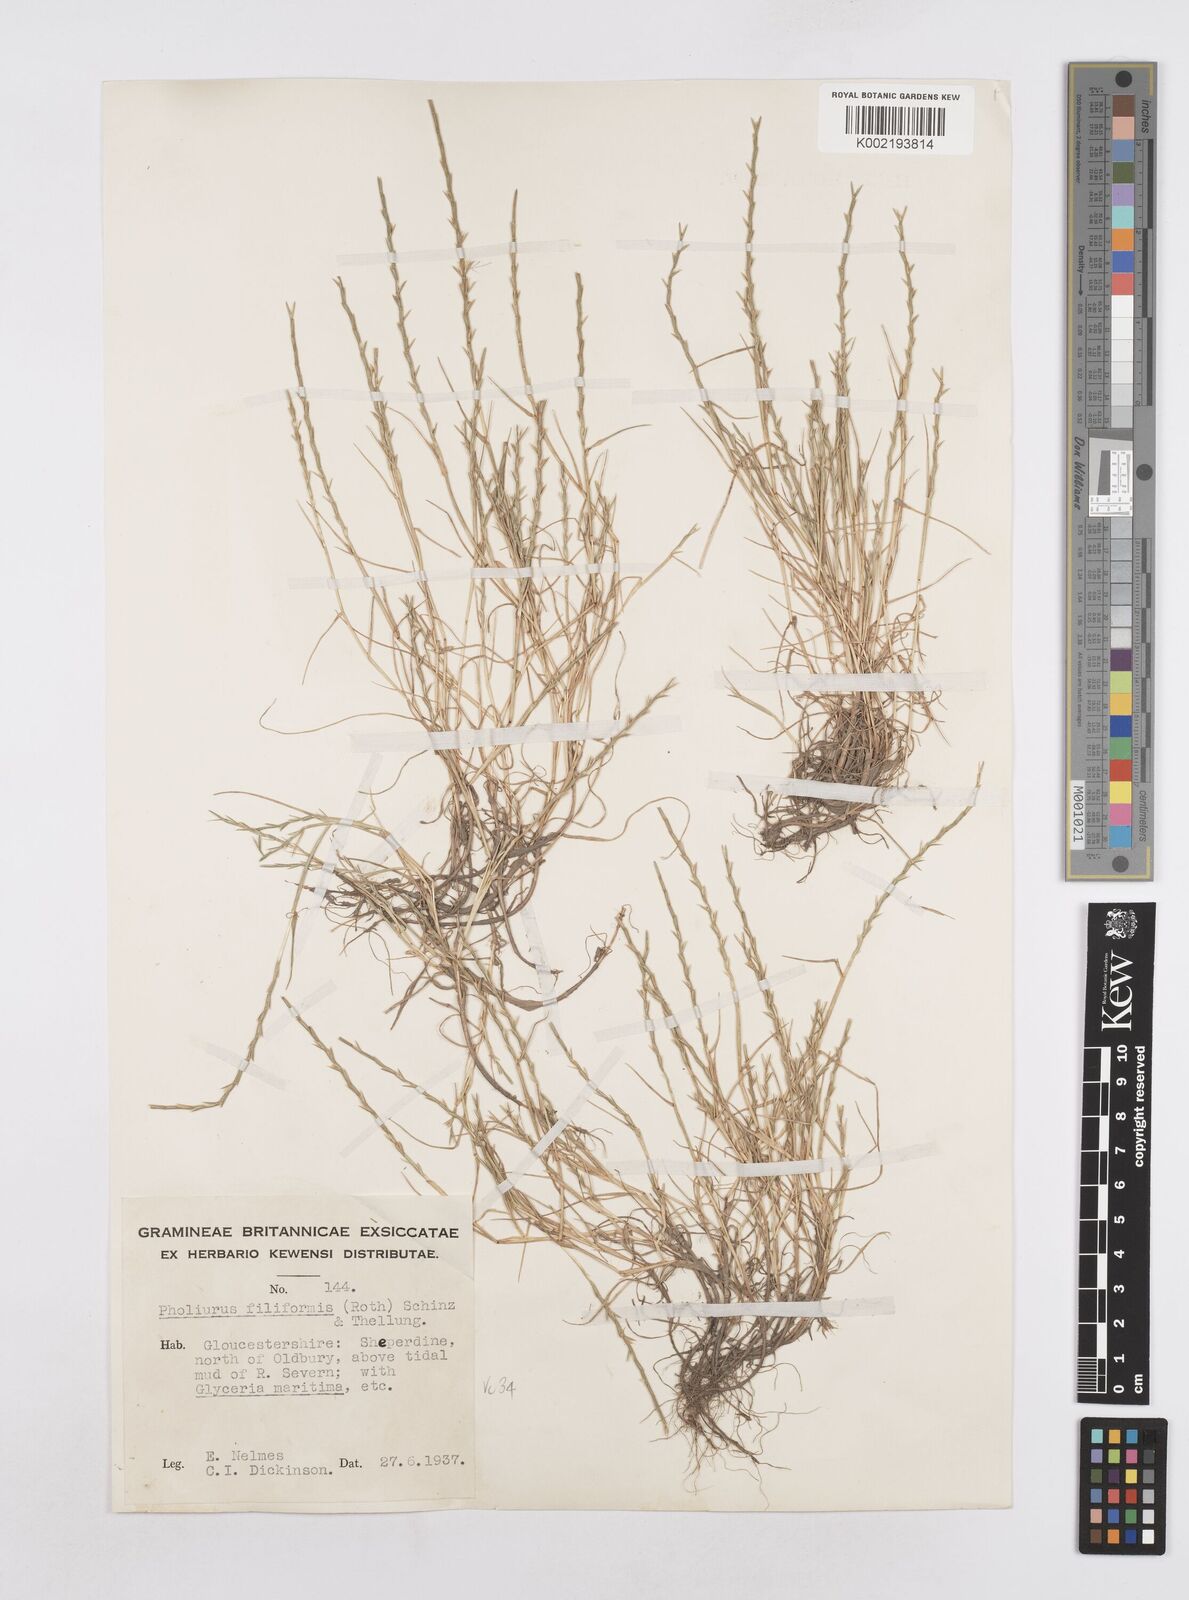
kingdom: Plantae
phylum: Tracheophyta
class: Liliopsida
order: Poales
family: Poaceae
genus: Parapholis
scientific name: Parapholis strigosa
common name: Hard-grass
